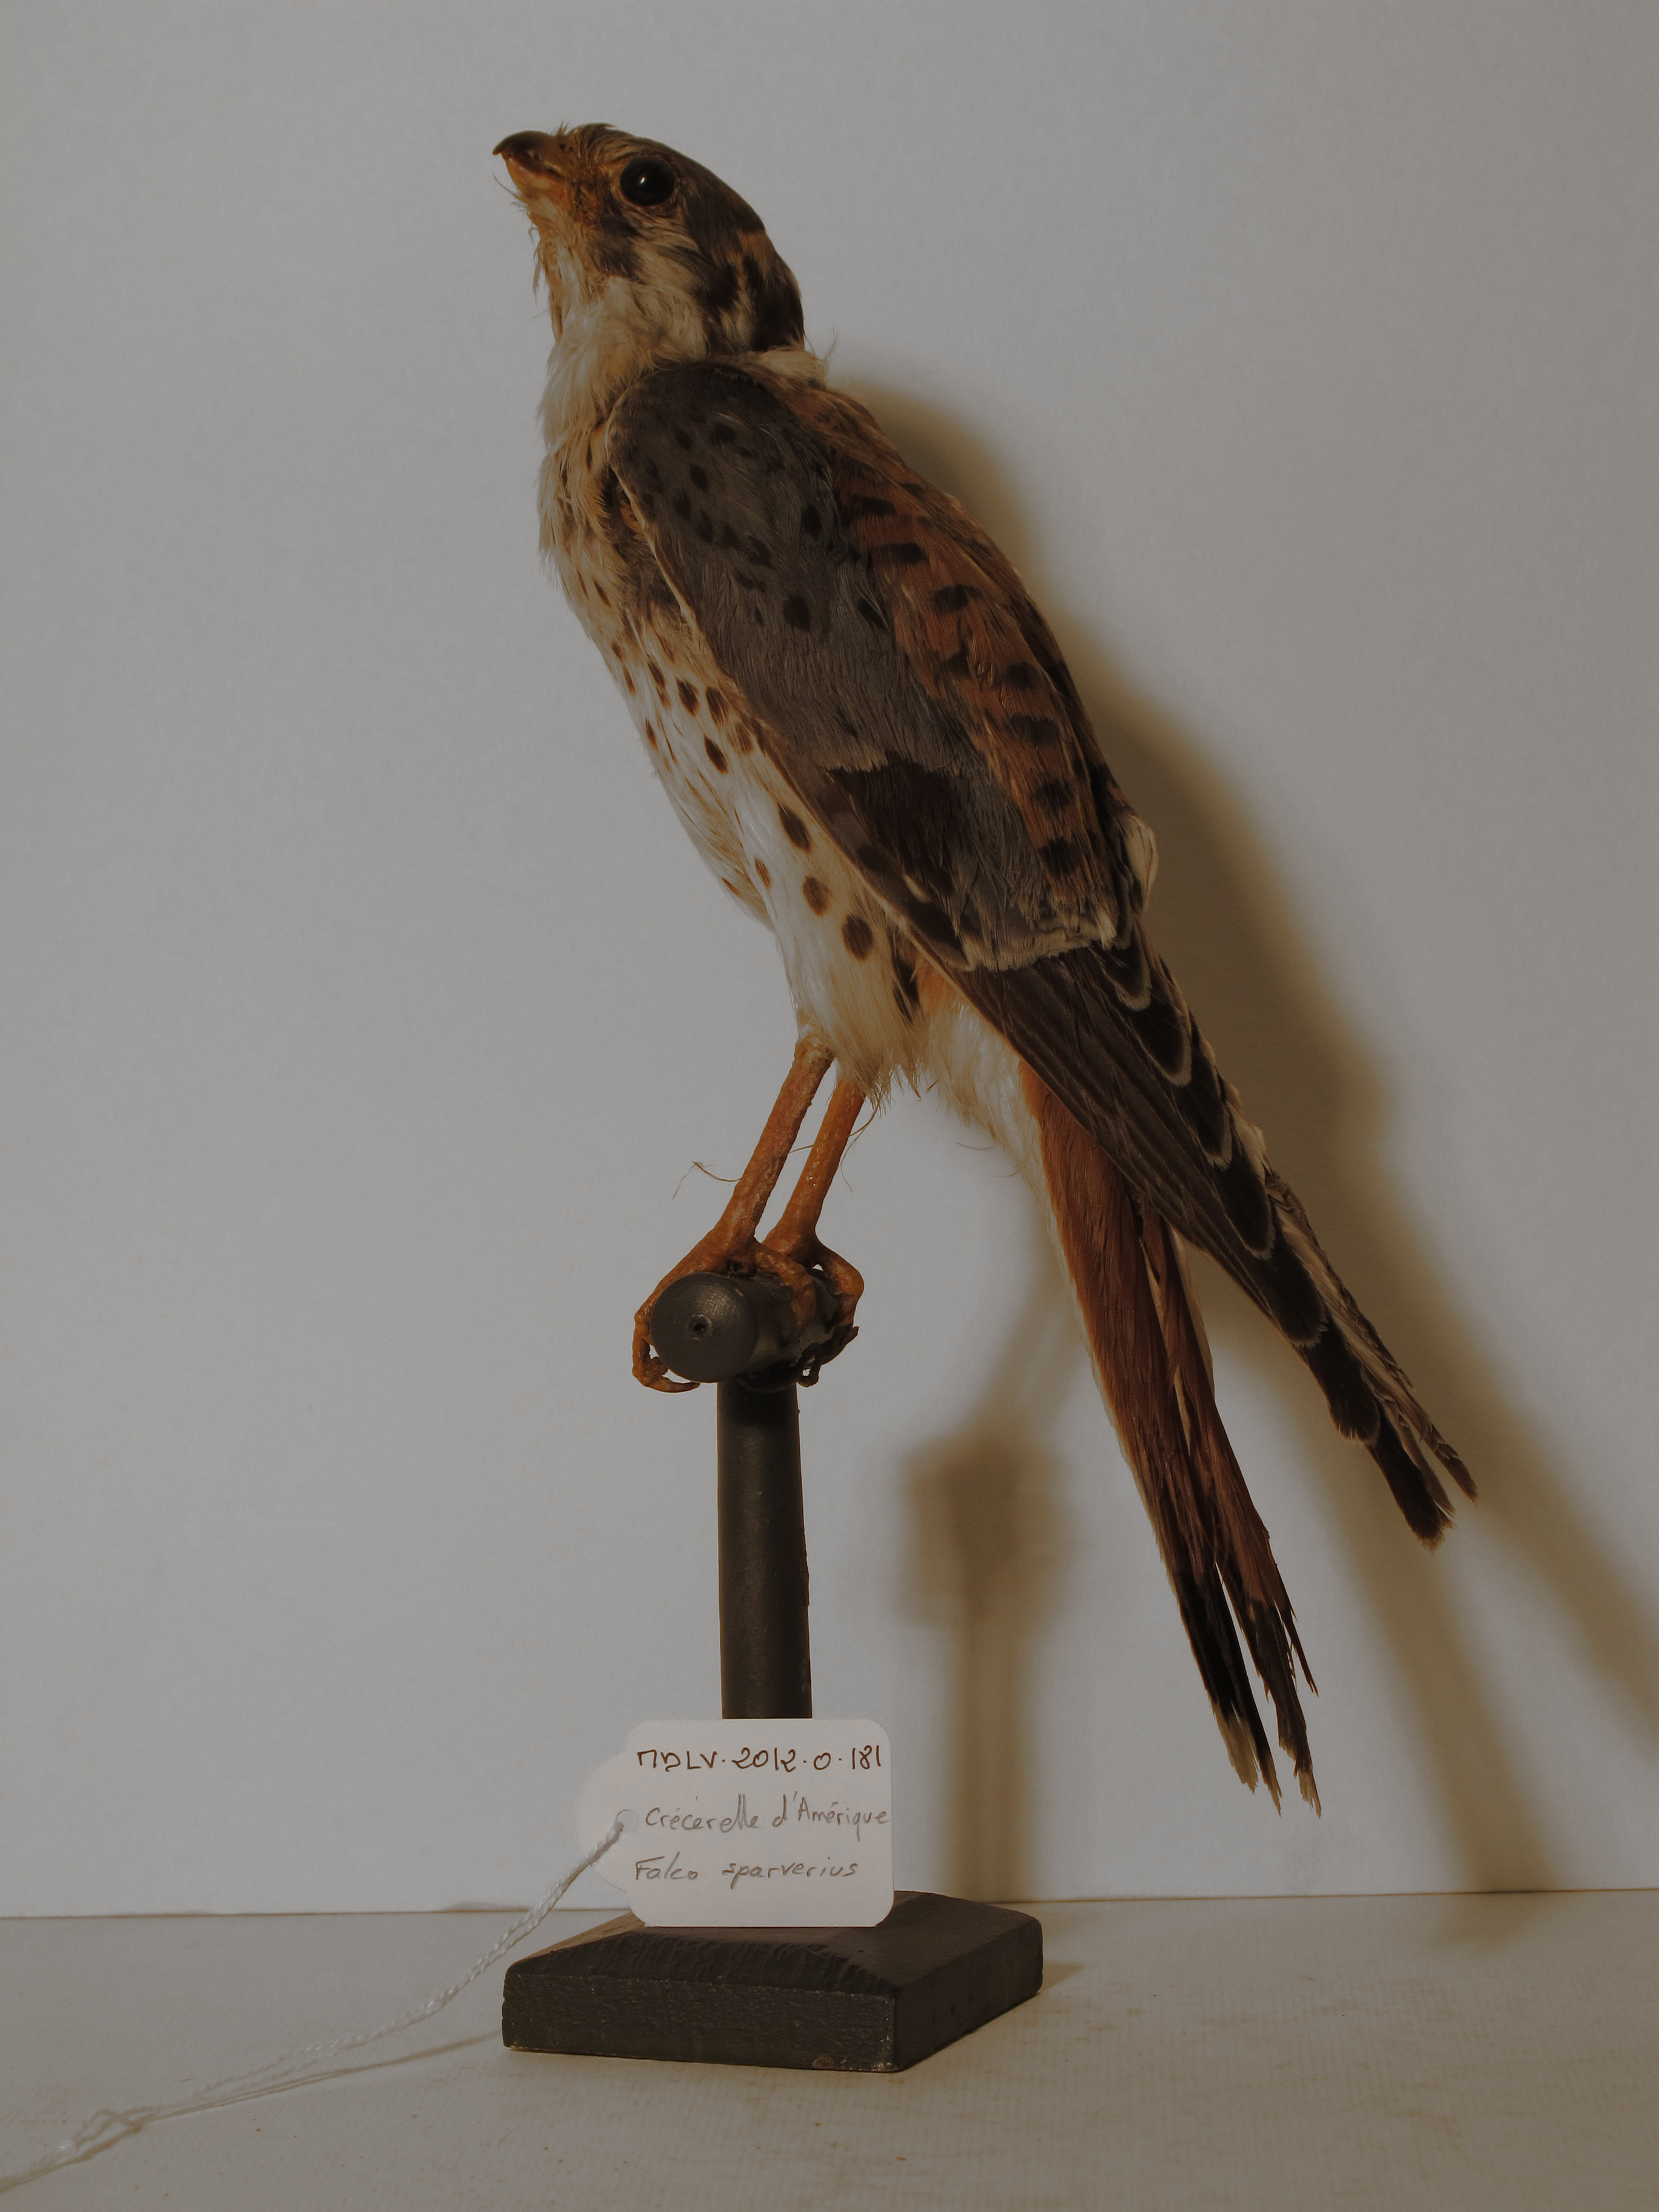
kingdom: Animalia
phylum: Chordata
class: Aves
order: Falconiformes
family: Falconidae
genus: Falco
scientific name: Falco sparverius
